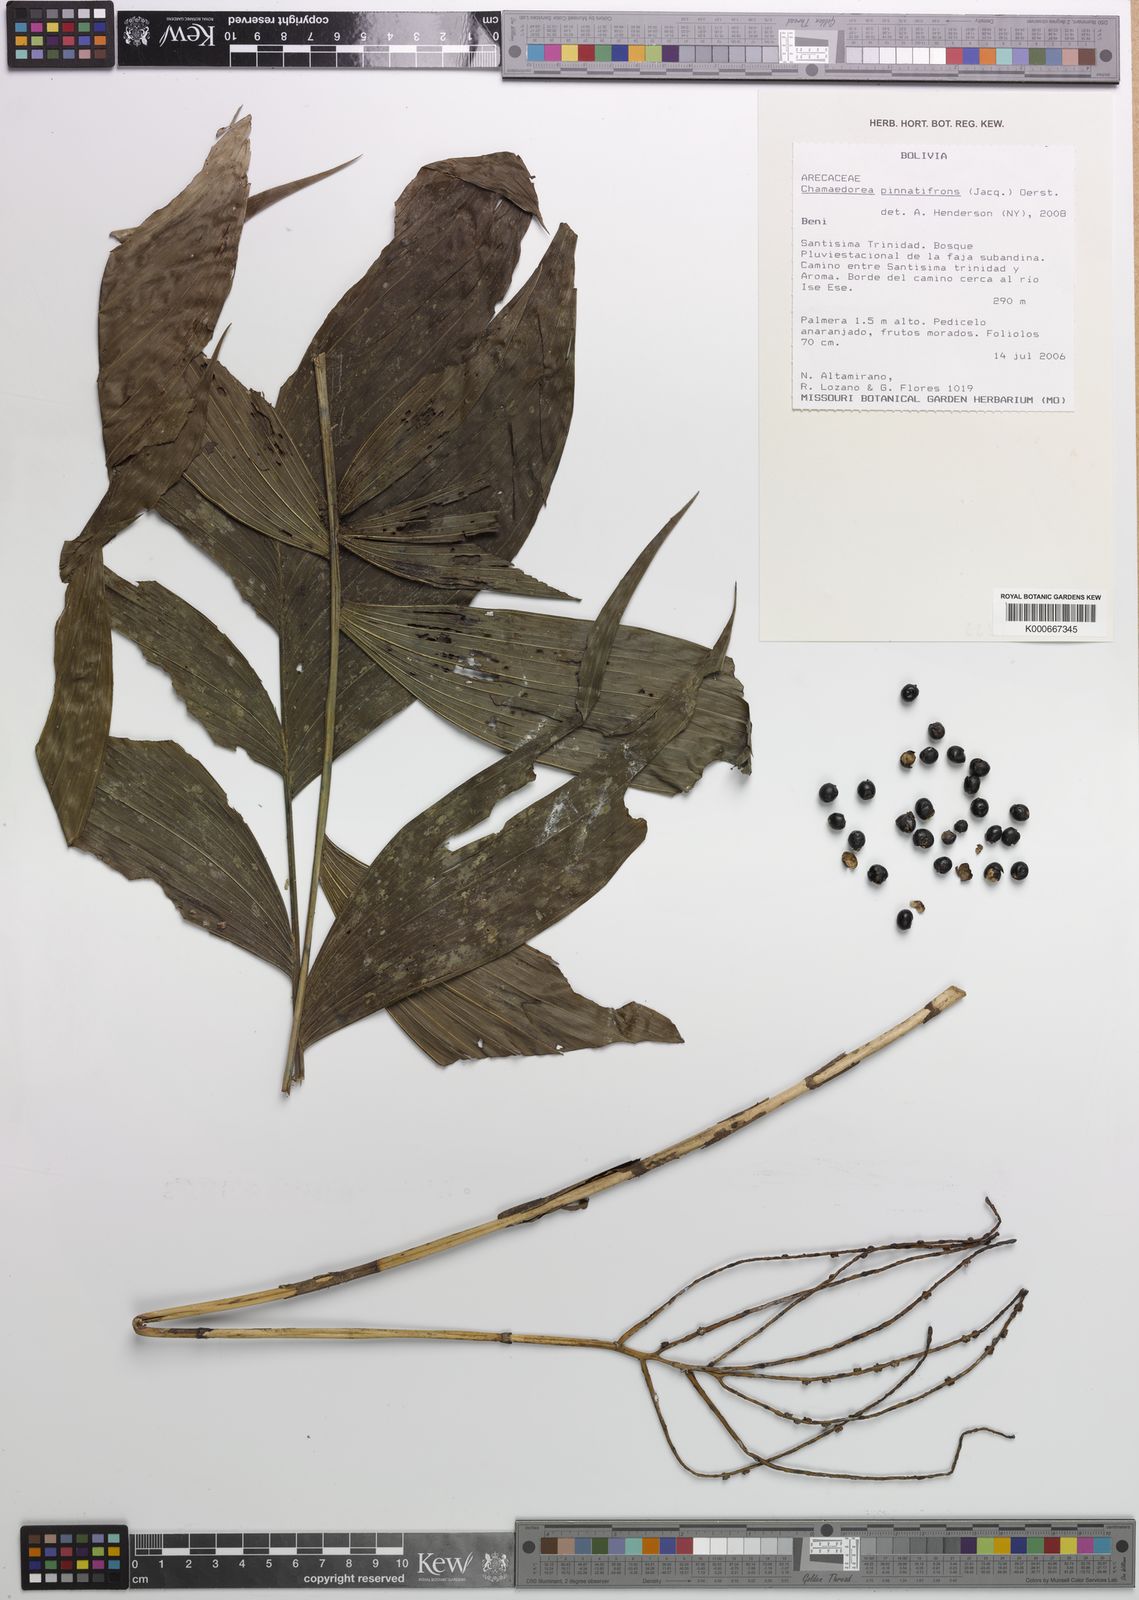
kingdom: Plantae
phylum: Tracheophyta
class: Liliopsida
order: Arecales
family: Arecaceae
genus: Chamaedorea
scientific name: Chamaedorea pinnatifrons
